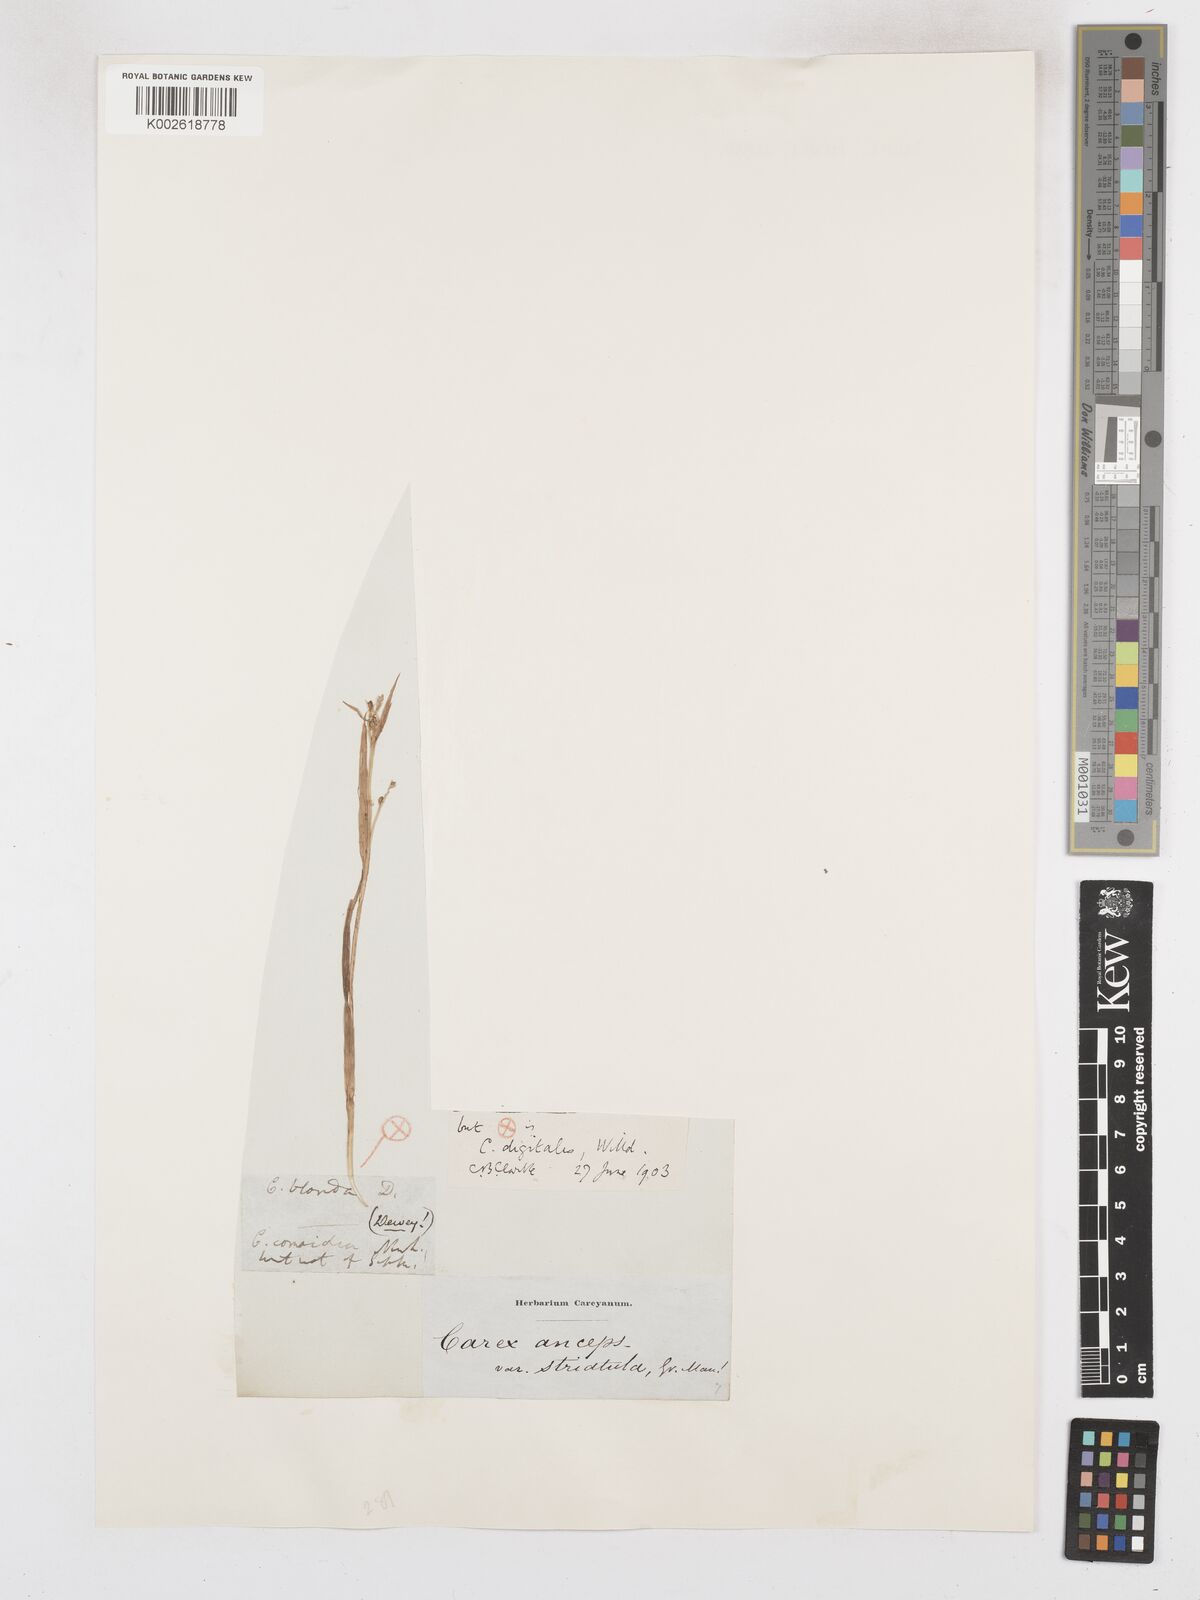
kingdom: Plantae
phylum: Tracheophyta
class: Liliopsida
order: Poales
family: Cyperaceae
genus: Carex
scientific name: Carex digitalis
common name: Slender wood sedge
